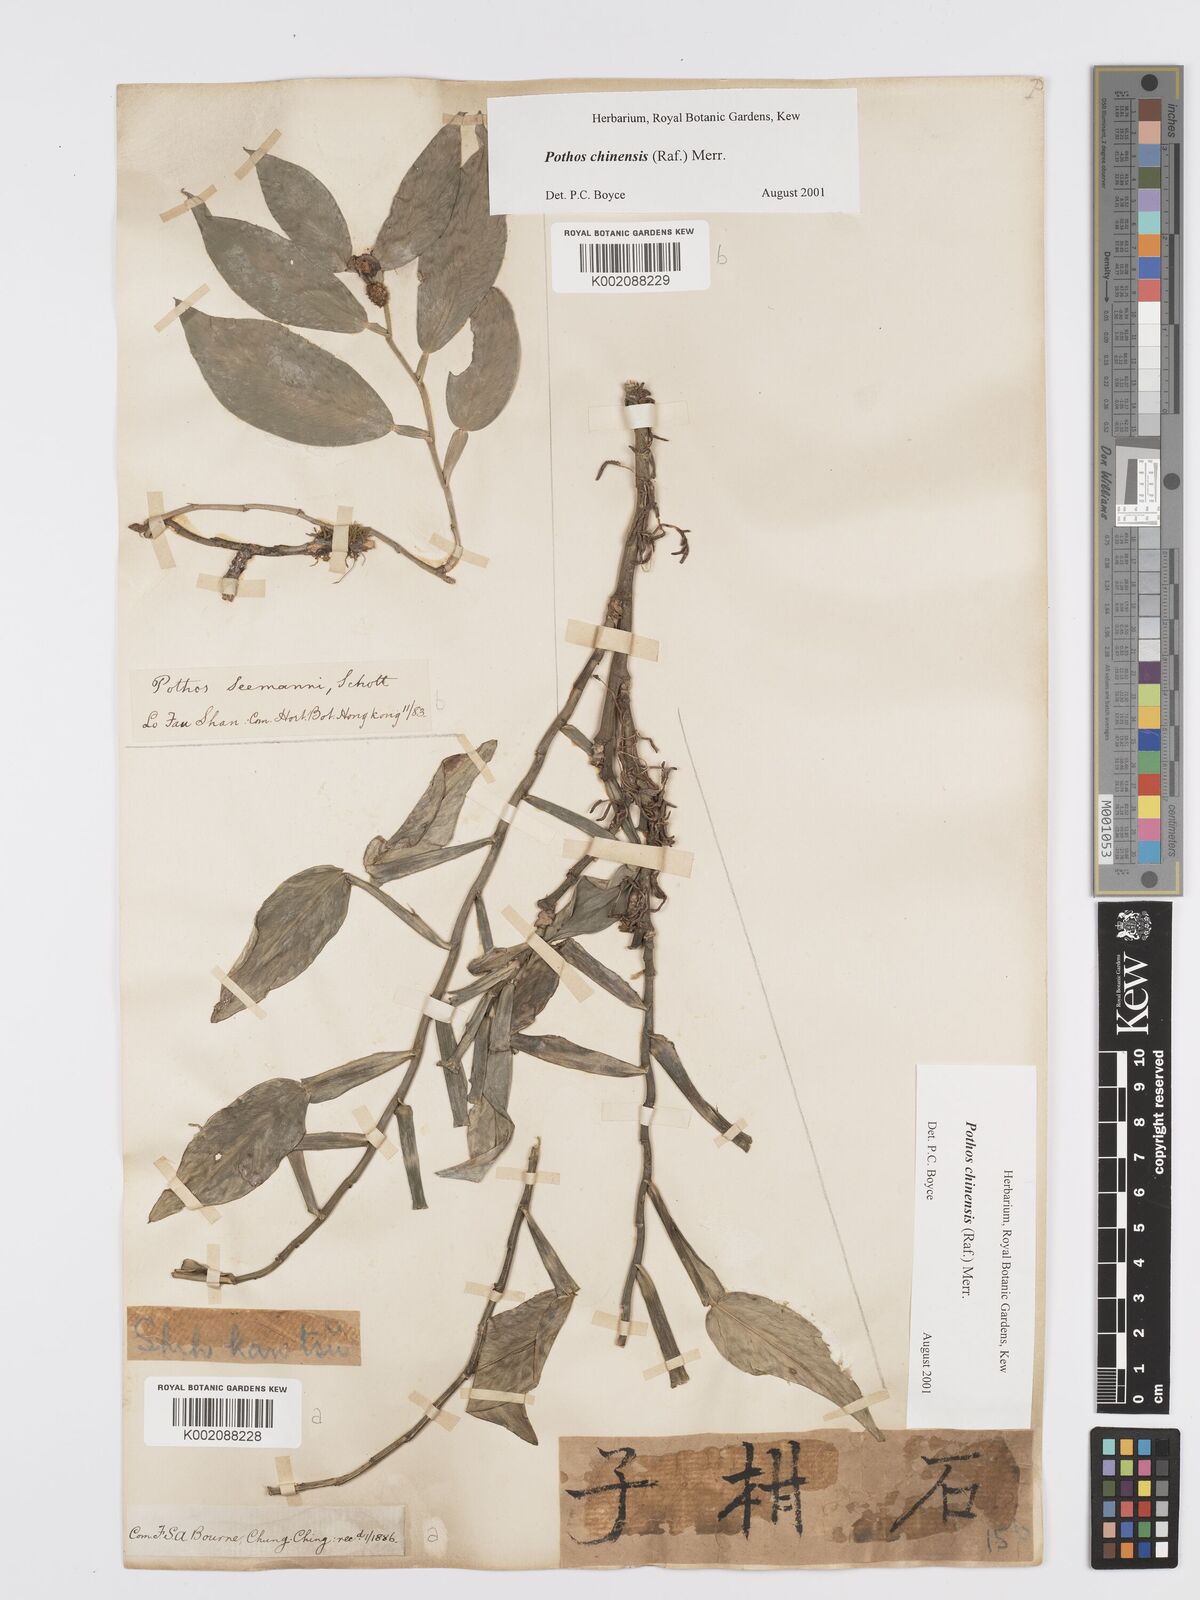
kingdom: Plantae
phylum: Tracheophyta
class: Liliopsida
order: Alismatales
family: Araceae
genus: Pothos
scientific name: Pothos chinensis
